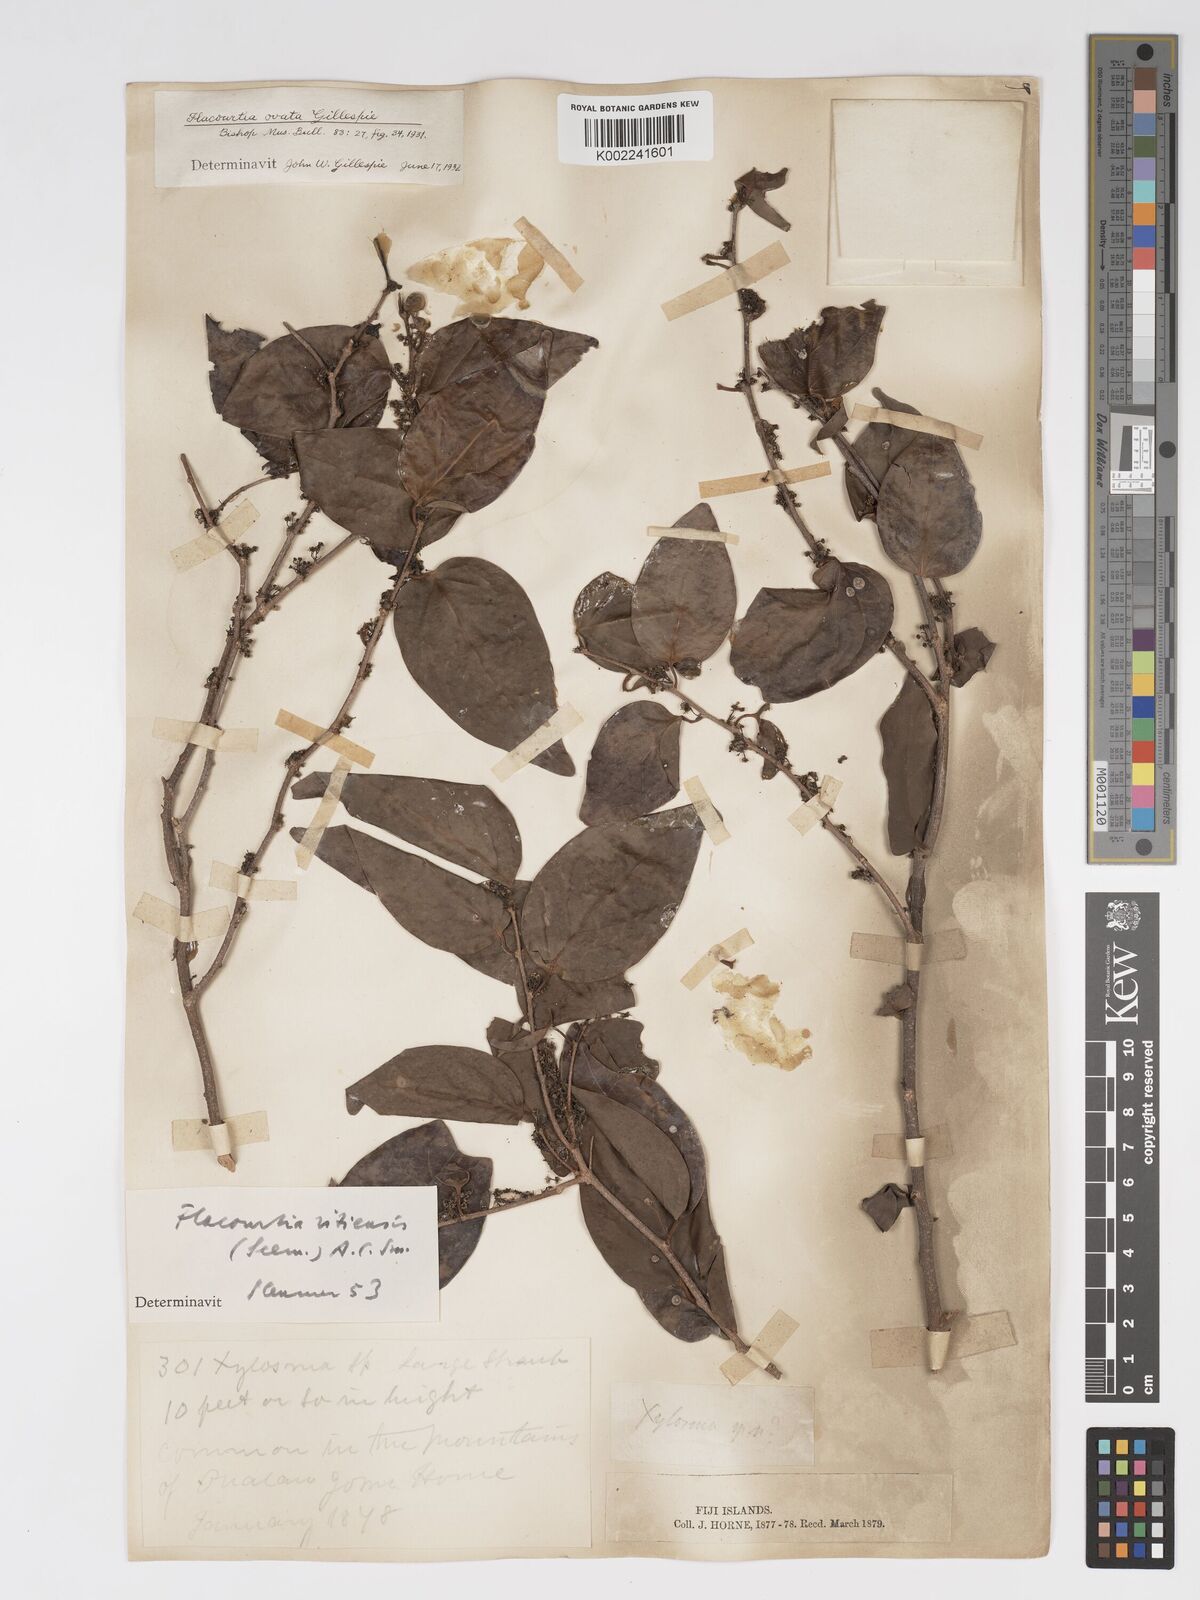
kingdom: Plantae
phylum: Tracheophyta
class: Magnoliopsida
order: Malpighiales
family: Salicaceae
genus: Flacourtia
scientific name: Flacourtia vitiensis
